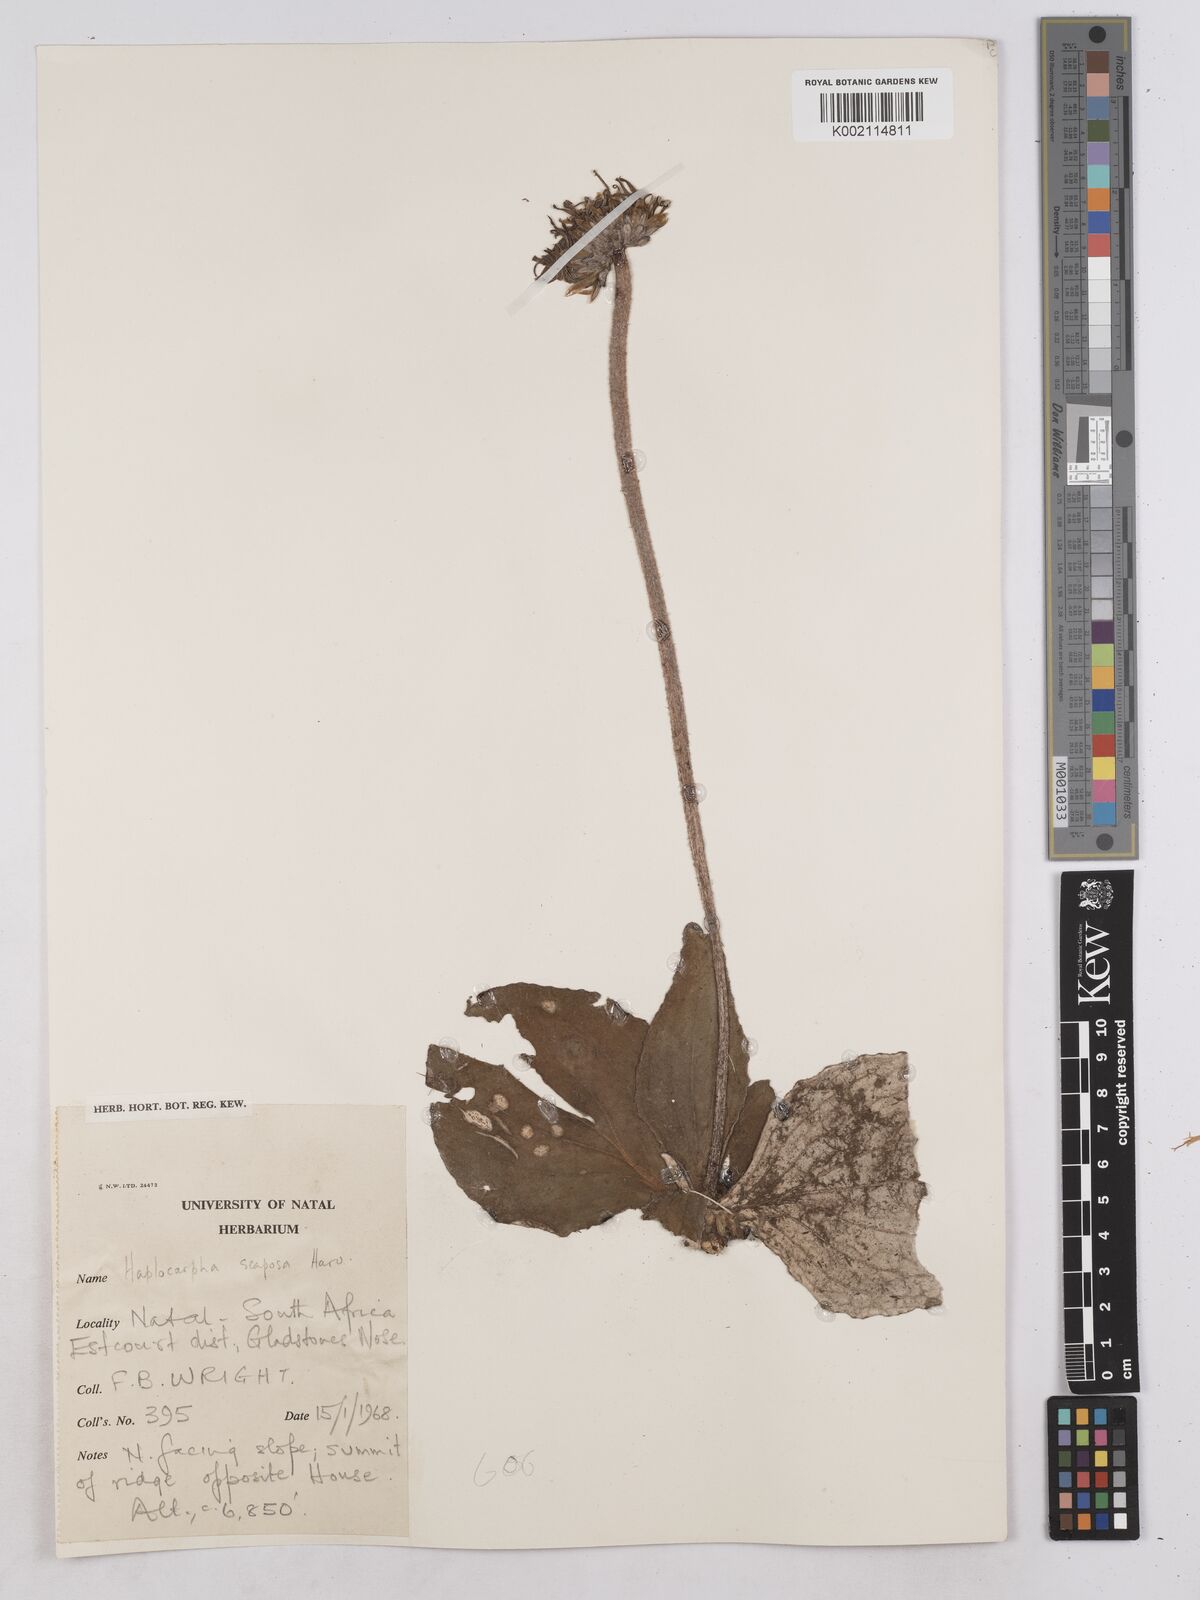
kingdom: Plantae
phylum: Tracheophyta
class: Magnoliopsida
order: Asterales
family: Asteraceae
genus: Haplocarpha
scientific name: Haplocarpha scaposa
